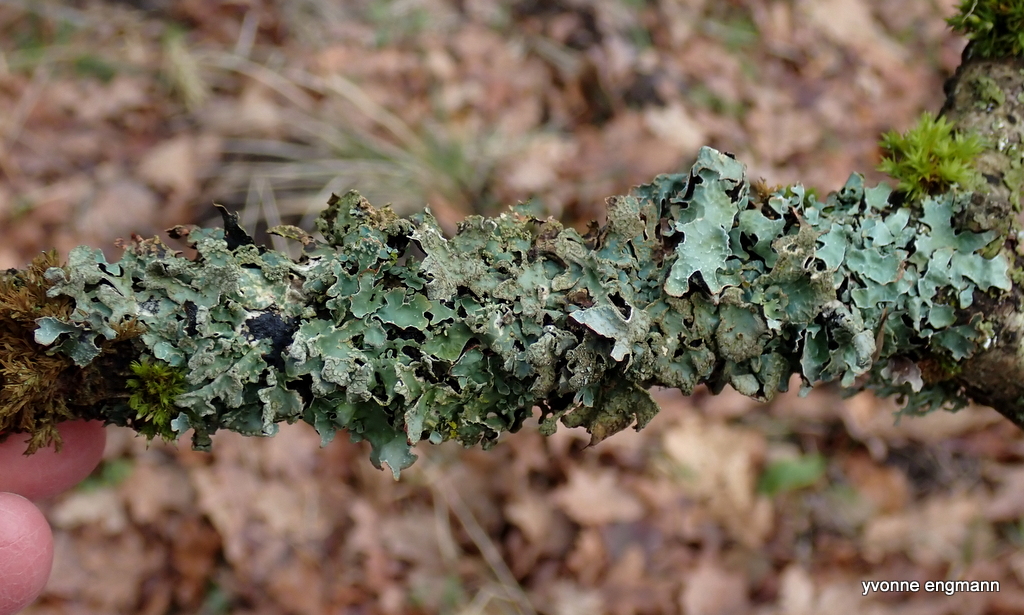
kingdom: Fungi
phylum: Ascomycota
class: Lecanoromycetes
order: Lecanorales
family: Parmeliaceae
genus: Parmelia
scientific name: Parmelia sulcata
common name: rynket skållav
